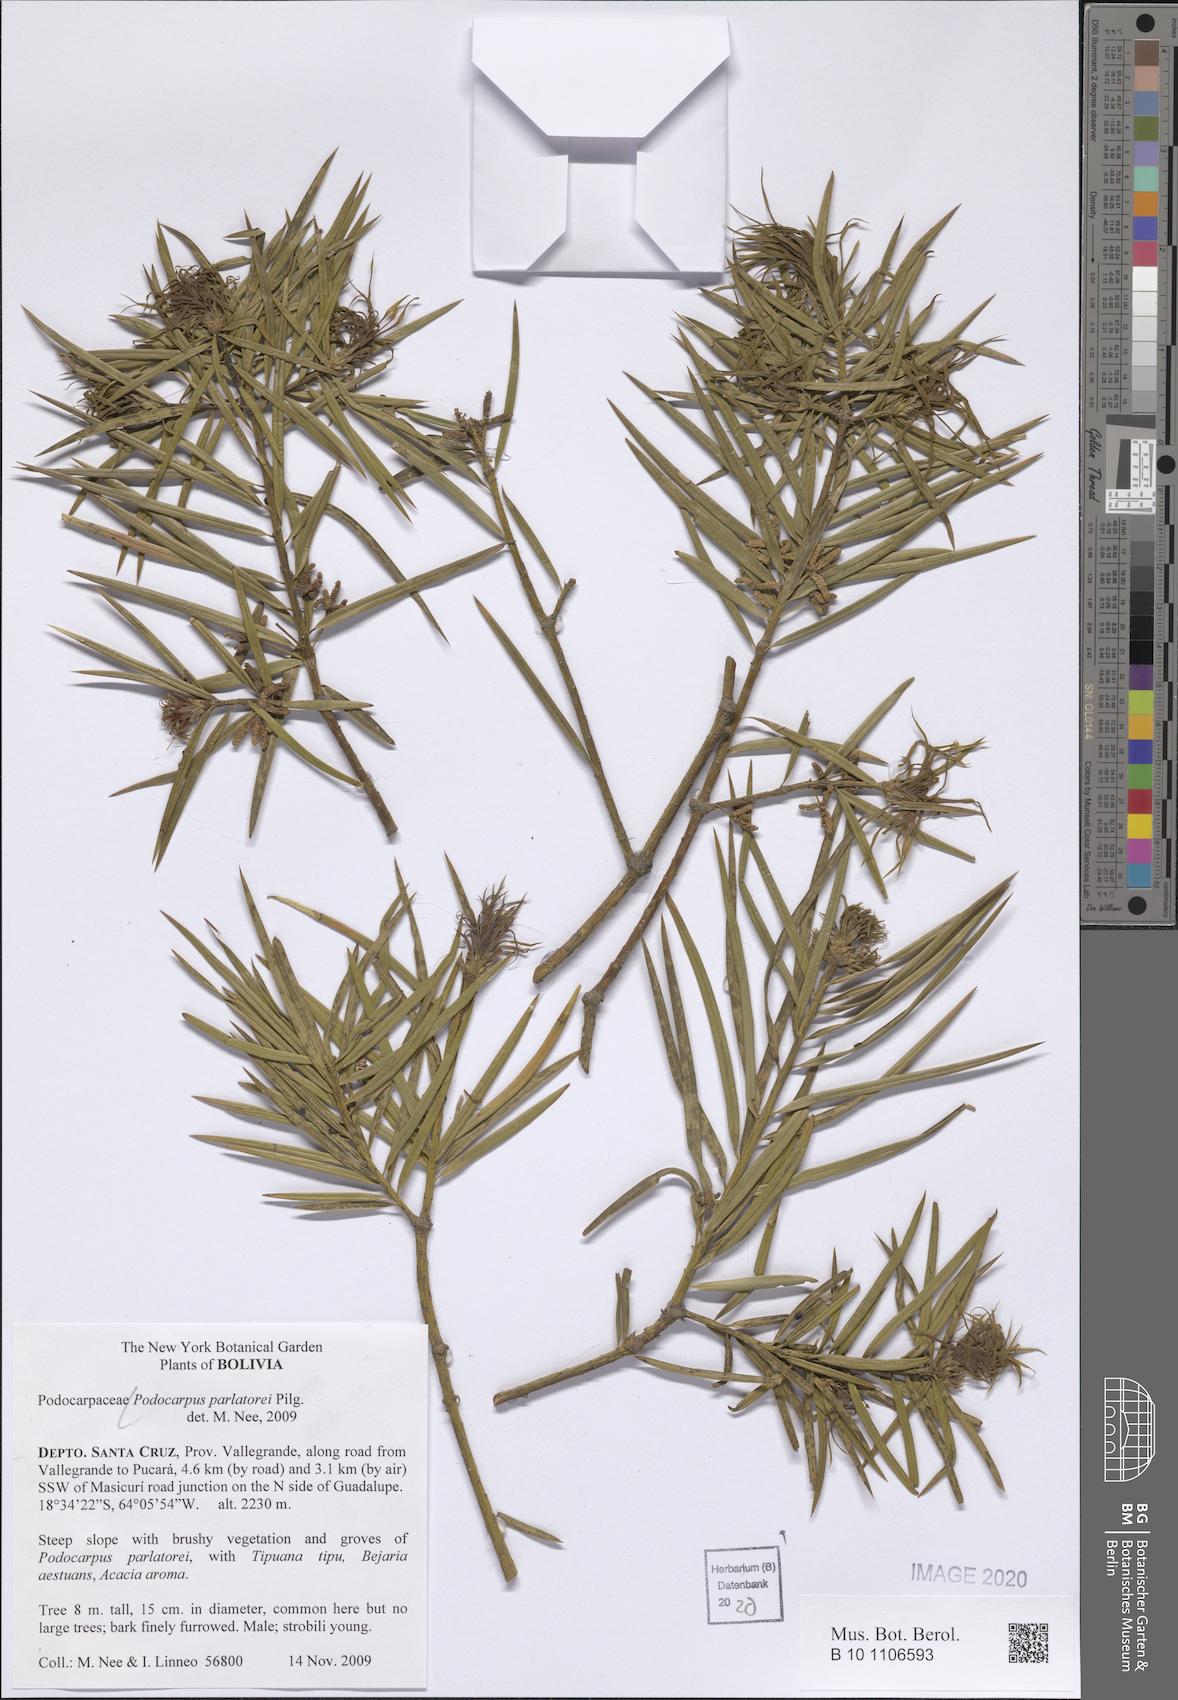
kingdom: Plantae
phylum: Tracheophyta
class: Pinopsida
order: Pinales
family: Podocarpaceae
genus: Podocarpus
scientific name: Podocarpus parlatorei
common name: Pino blanco
